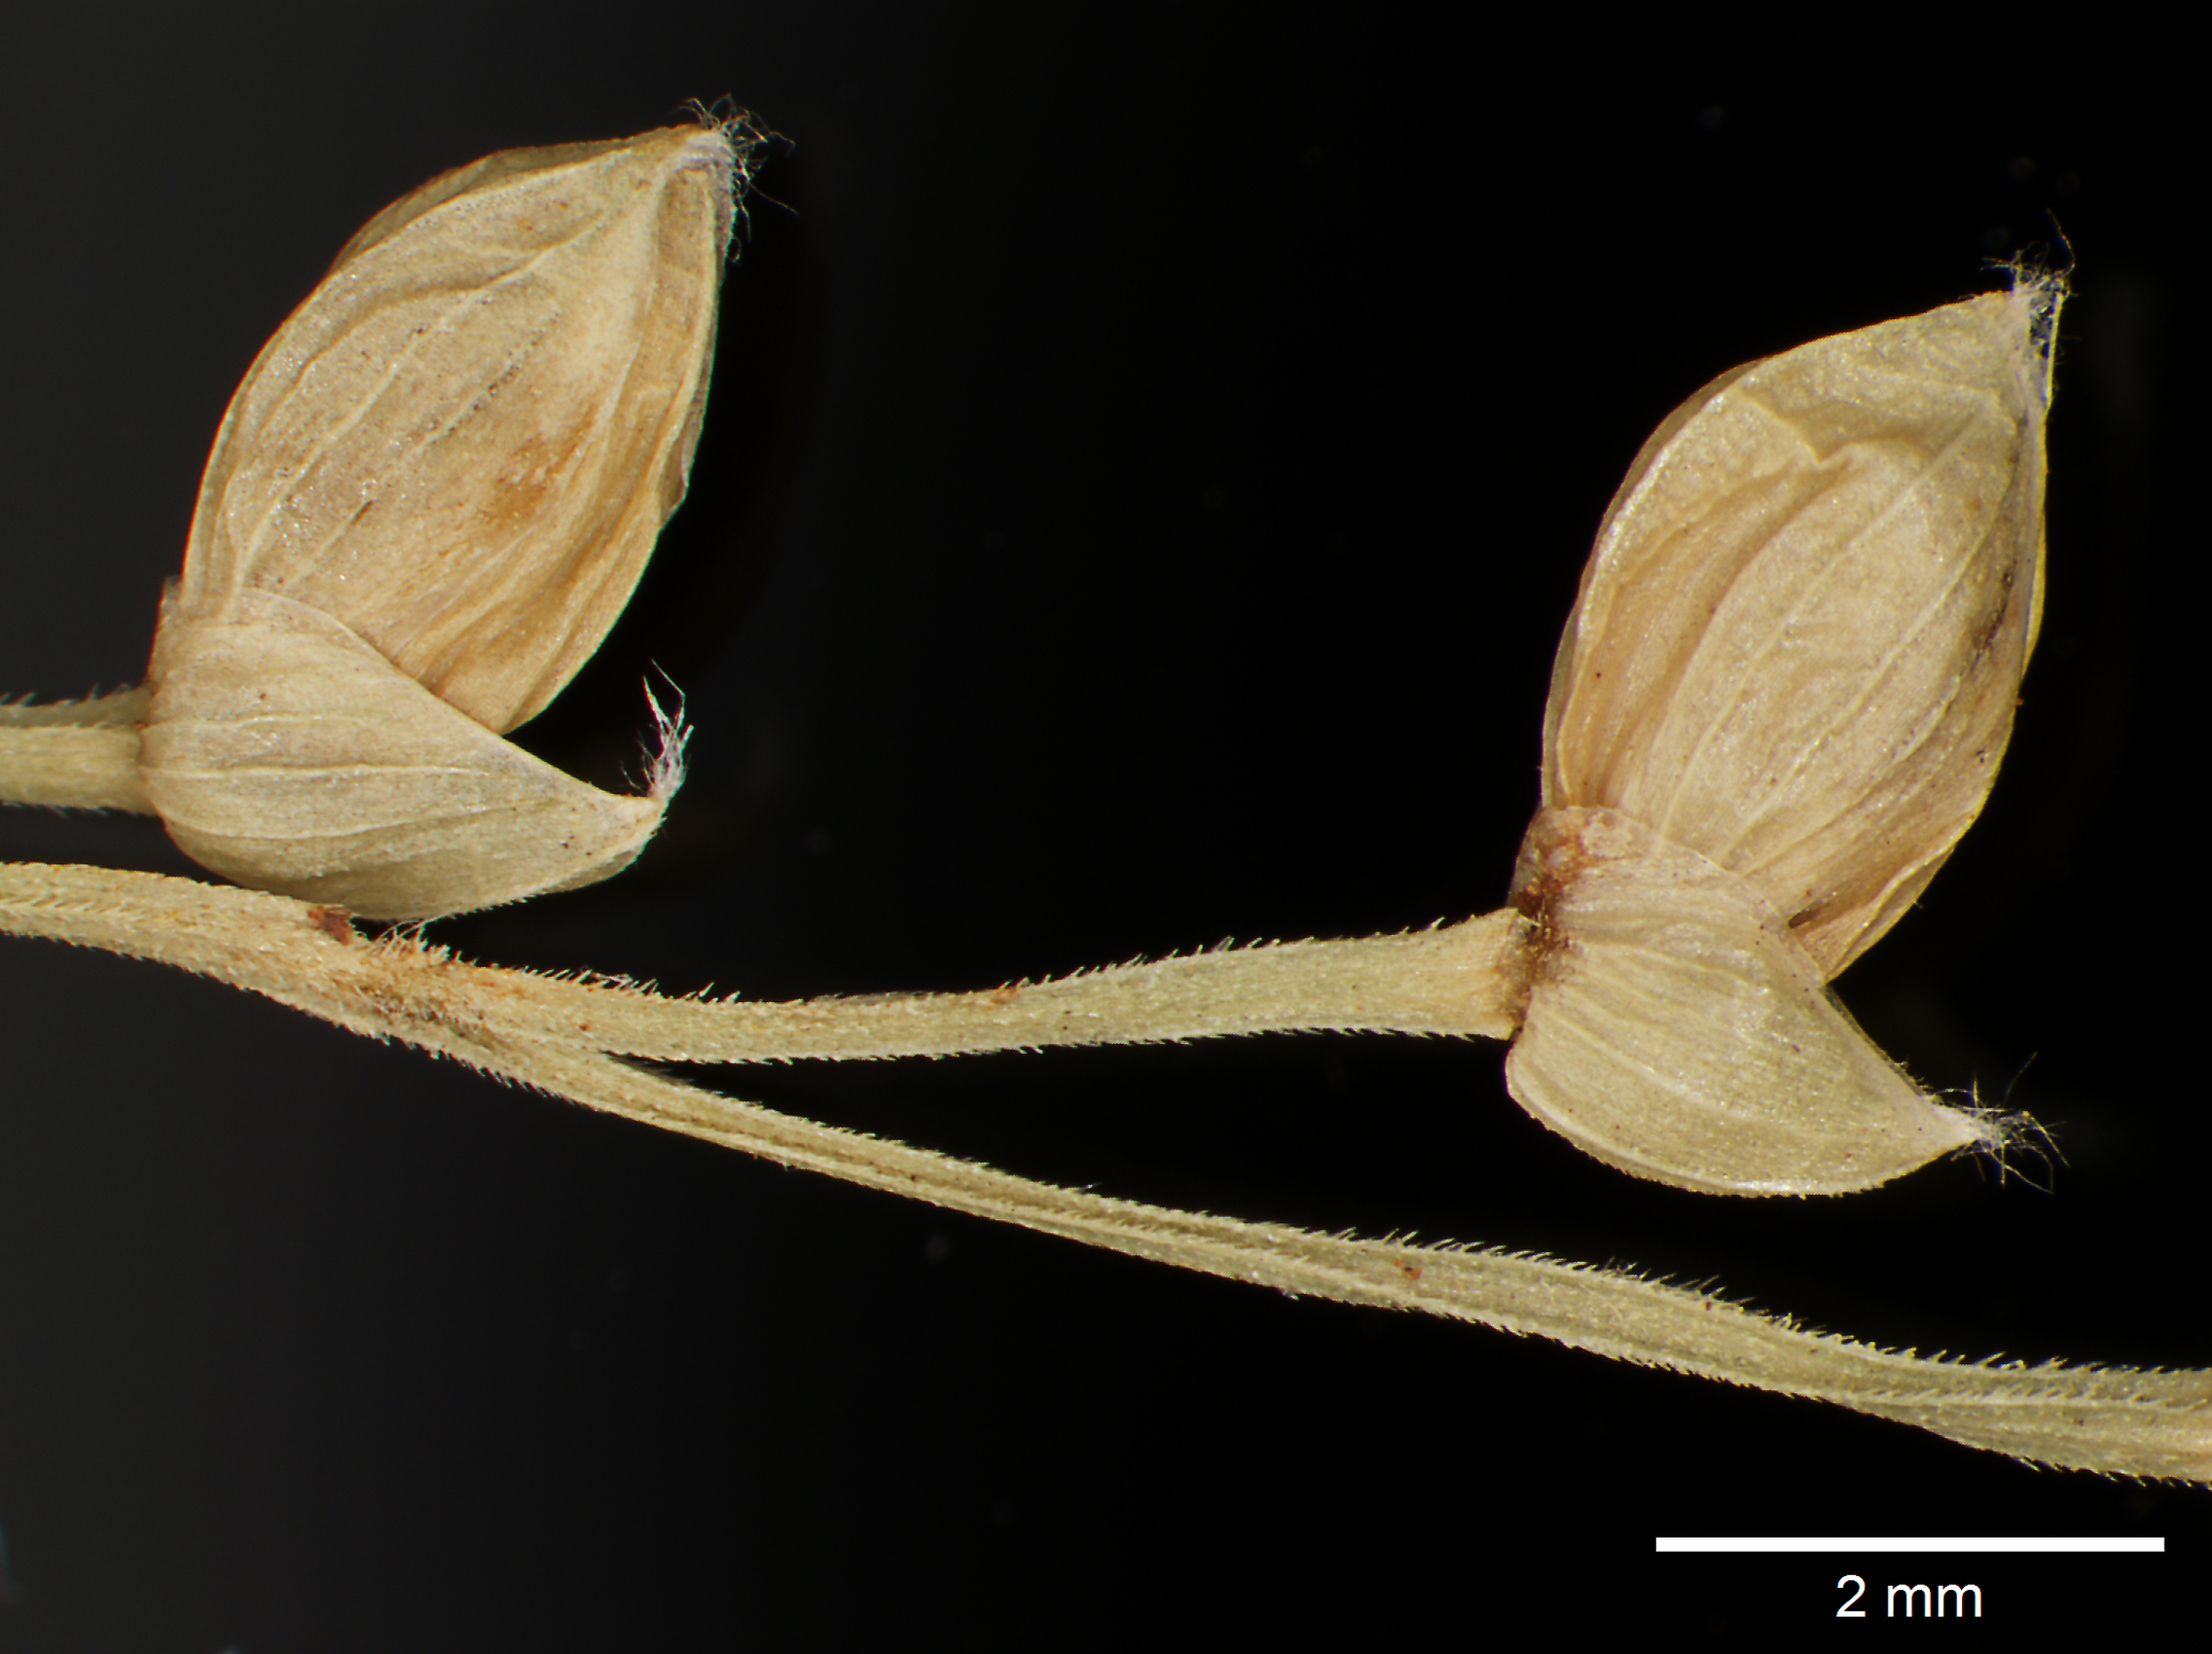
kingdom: Plantae
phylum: Tracheophyta
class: Liliopsida
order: Poales
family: Poaceae
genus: Lasiacis
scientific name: Lasiacis grisebachii
